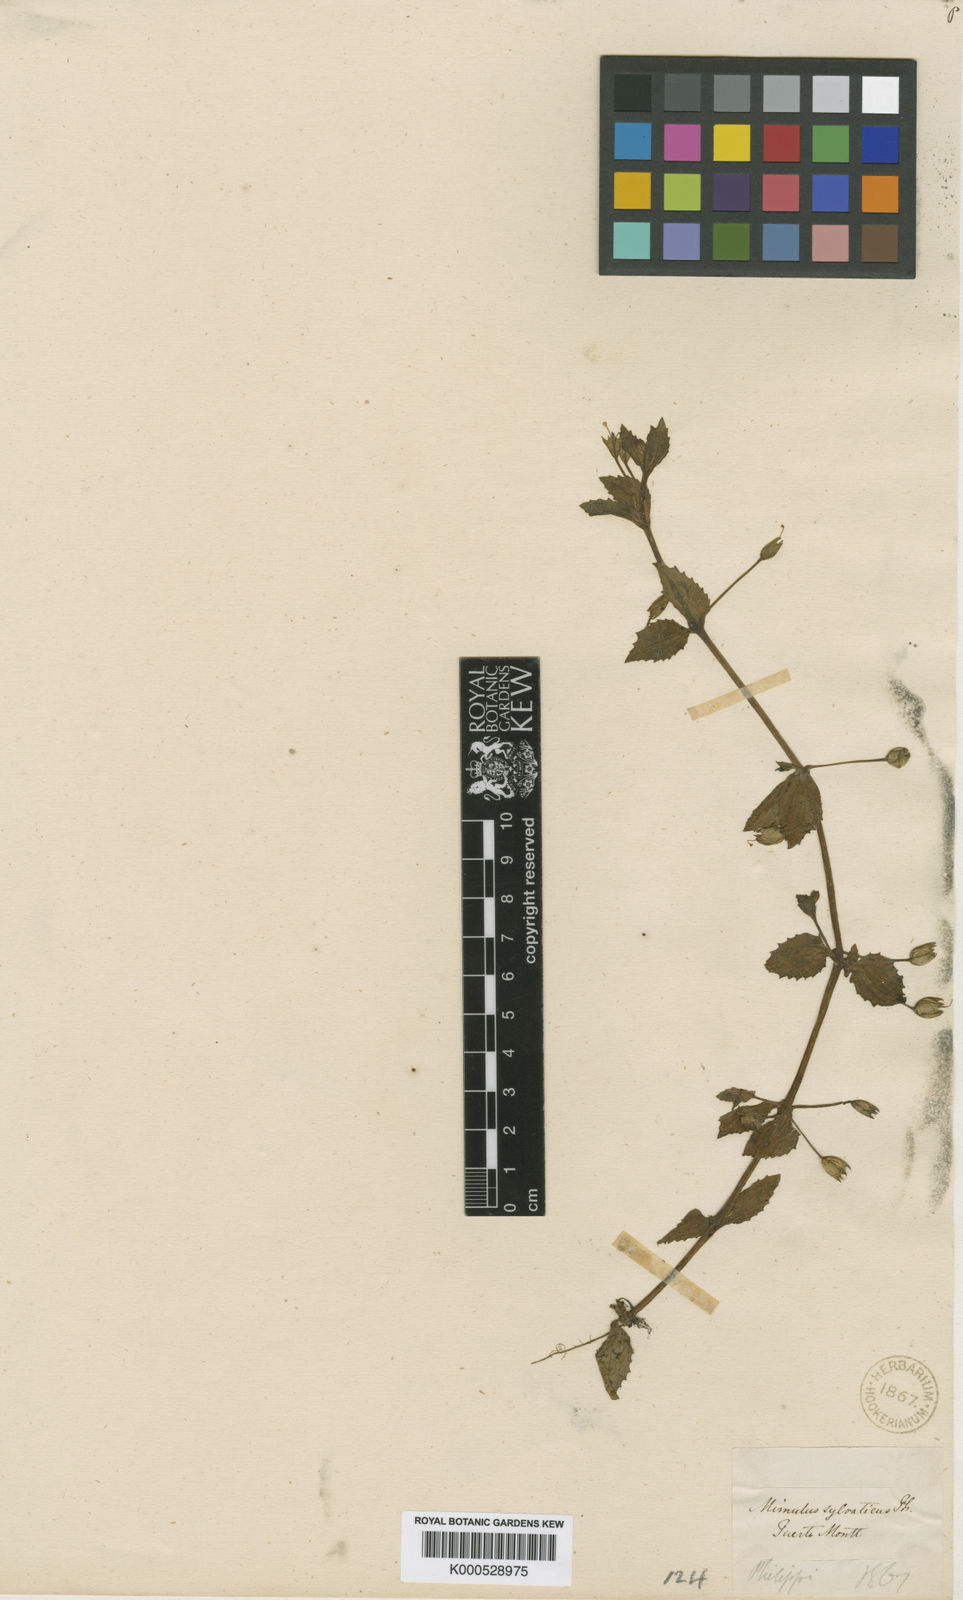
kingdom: Plantae
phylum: Tracheophyta
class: Magnoliopsida
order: Lamiales
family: Phrymaceae
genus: Erythranthe
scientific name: Erythranthe andicola
